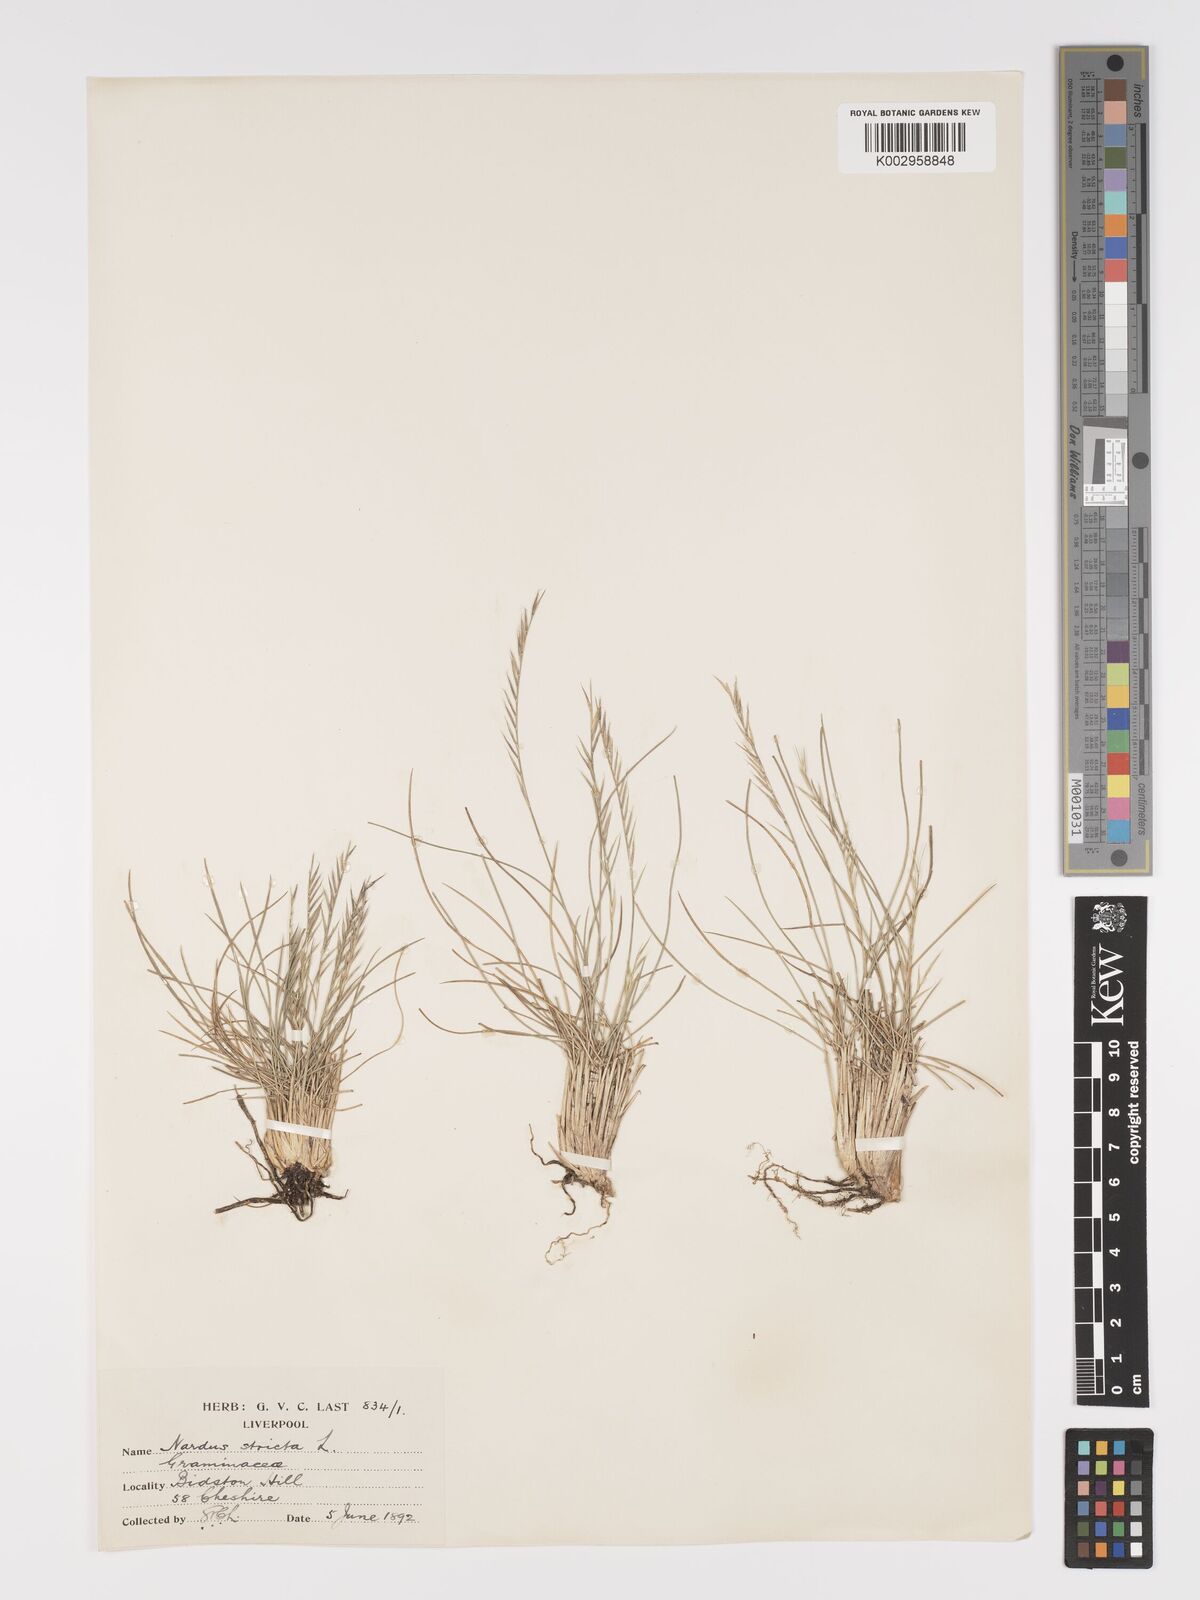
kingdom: Plantae
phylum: Tracheophyta
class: Liliopsida
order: Poales
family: Poaceae
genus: Nardus
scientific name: Nardus stricta
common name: Mat-grass
